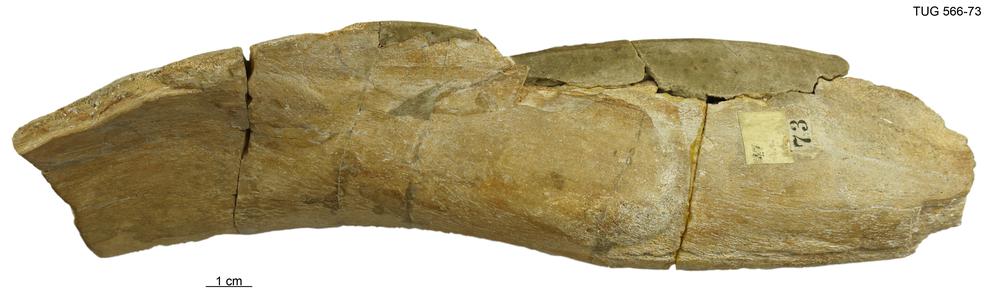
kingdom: Animalia
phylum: Chordata
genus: Homosteus
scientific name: Homosteus latus
